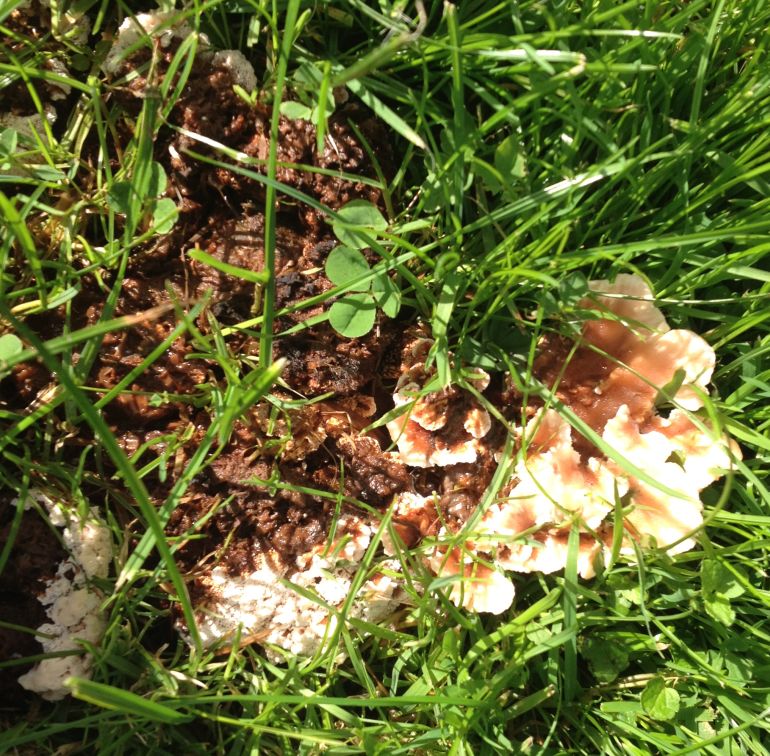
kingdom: Fungi
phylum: Basidiomycota
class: Agaricomycetes
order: Polyporales
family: Meruliaceae
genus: Phlebia
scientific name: Phlebia tremellosa
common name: bævrende åresvamp
